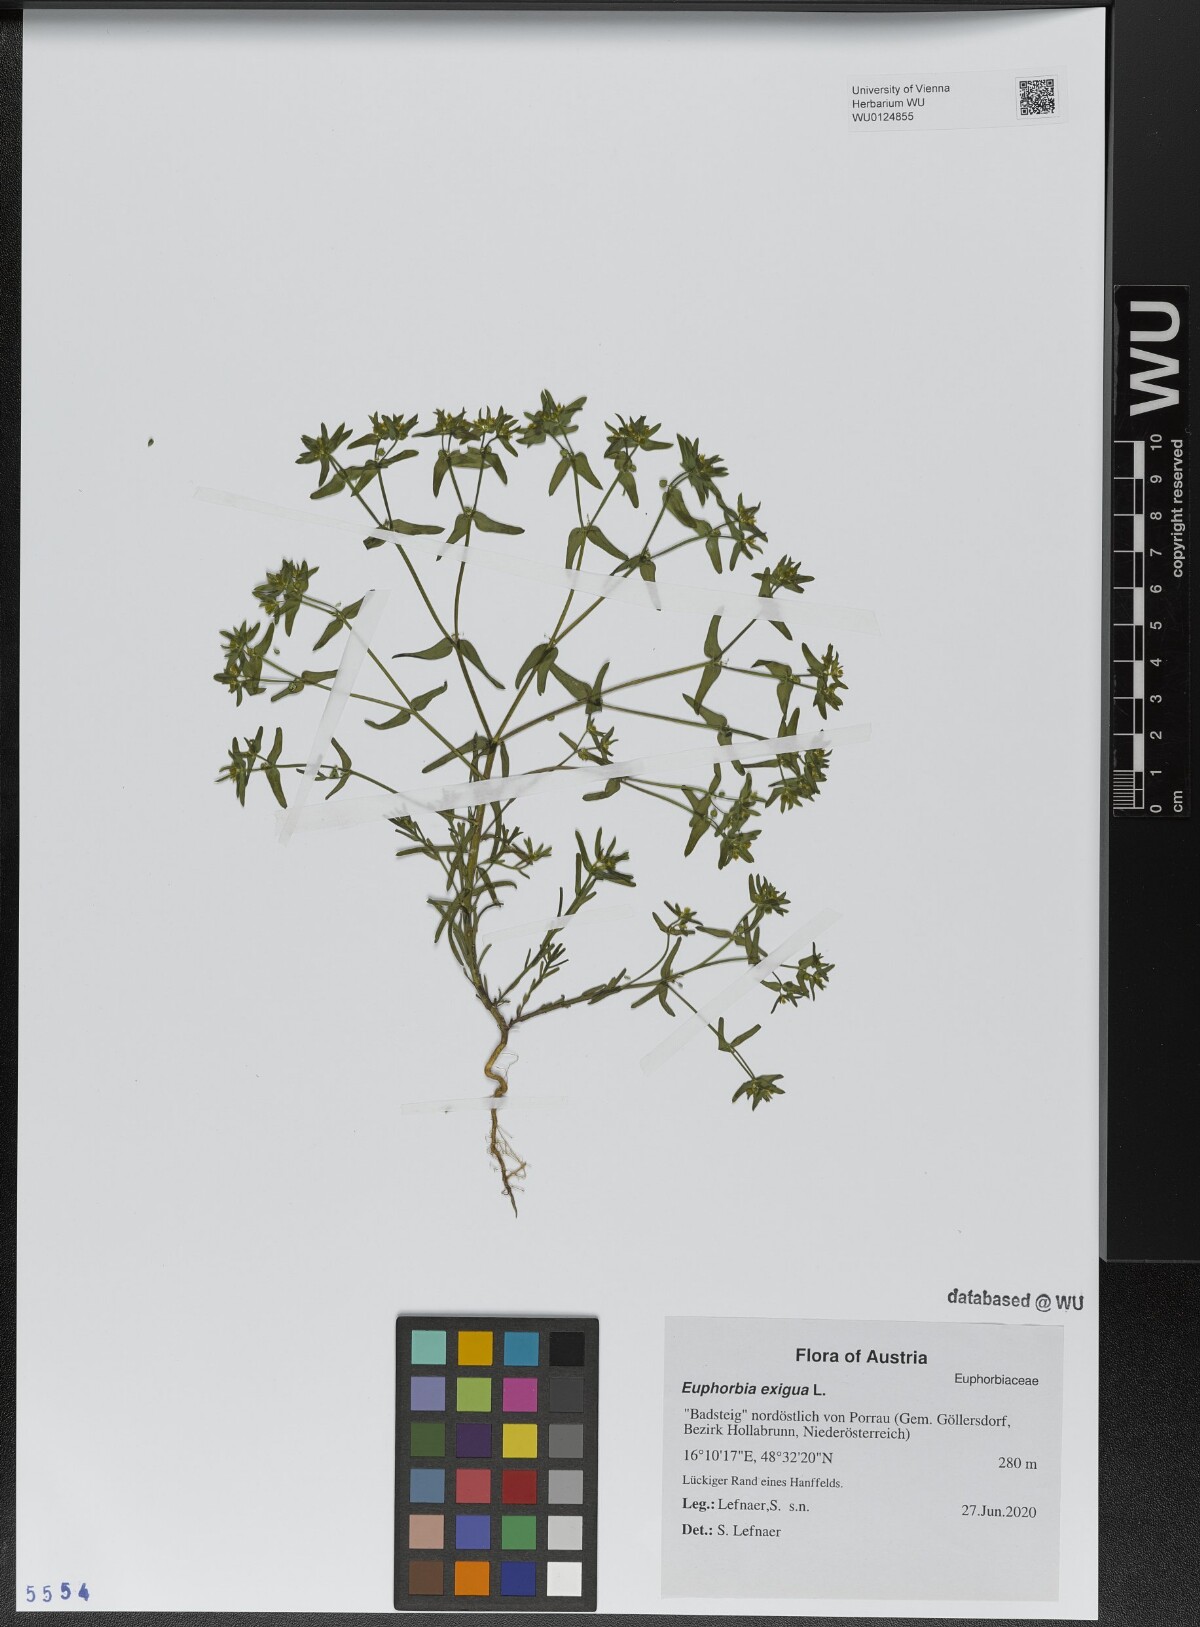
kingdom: Plantae
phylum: Tracheophyta
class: Magnoliopsida
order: Malpighiales
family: Euphorbiaceae
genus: Euphorbia
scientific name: Euphorbia exigua
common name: Dwarf spurge
